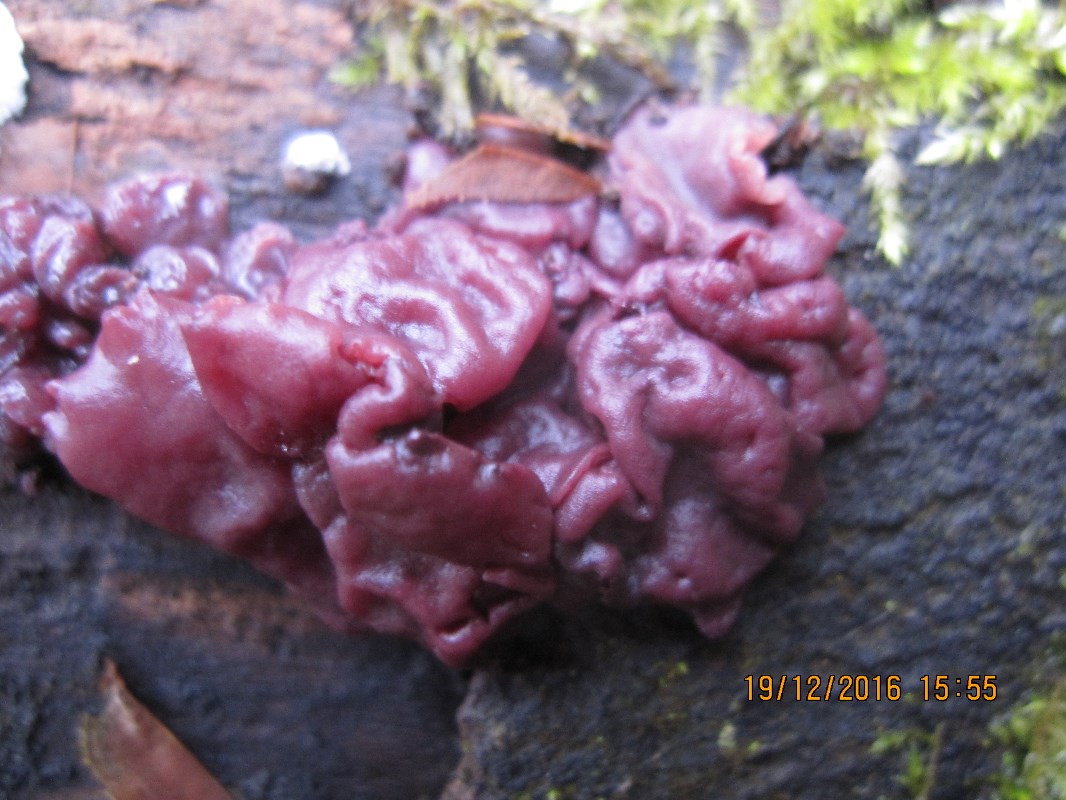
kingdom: Fungi
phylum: Ascomycota
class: Leotiomycetes
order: Helotiales
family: Gelatinodiscaceae
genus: Ascocoryne
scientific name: Ascocoryne cylichnium
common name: stor sejskive
